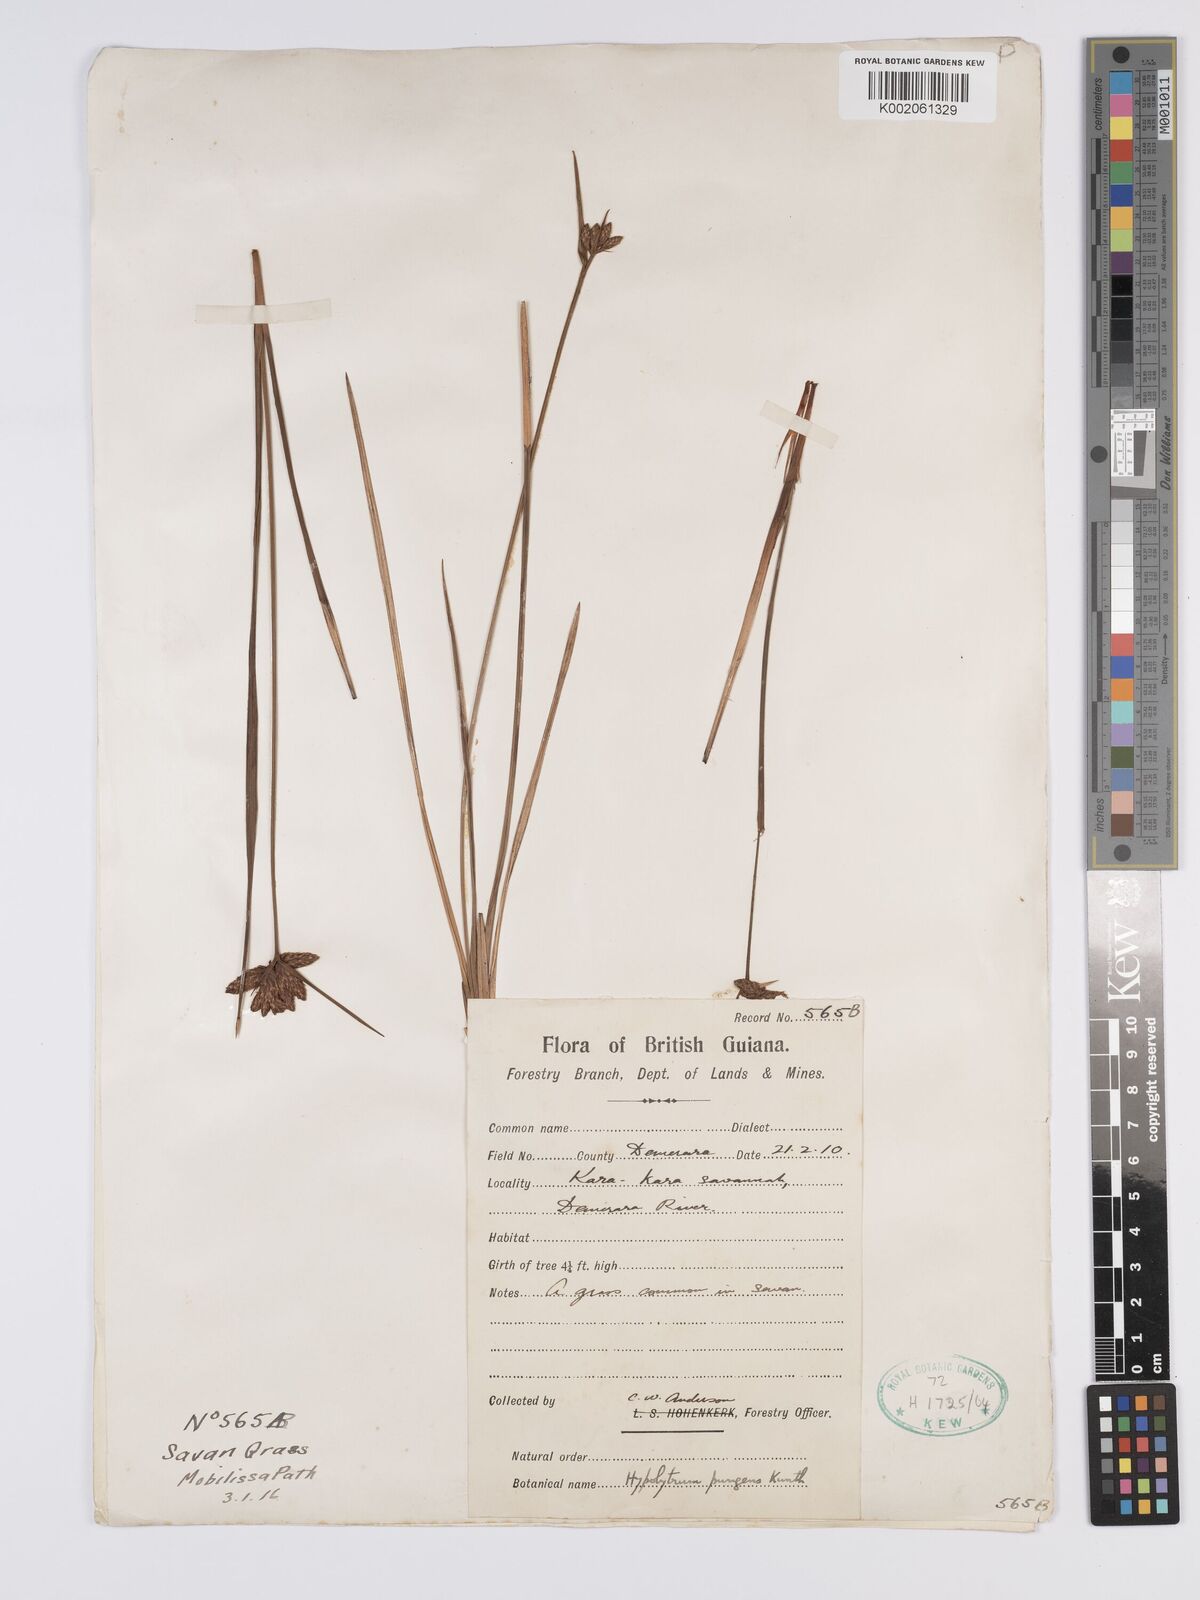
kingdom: Plantae
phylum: Tracheophyta
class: Liliopsida
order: Poales
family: Cyperaceae
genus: Hypolytrum
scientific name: Hypolytrum pulchrum
